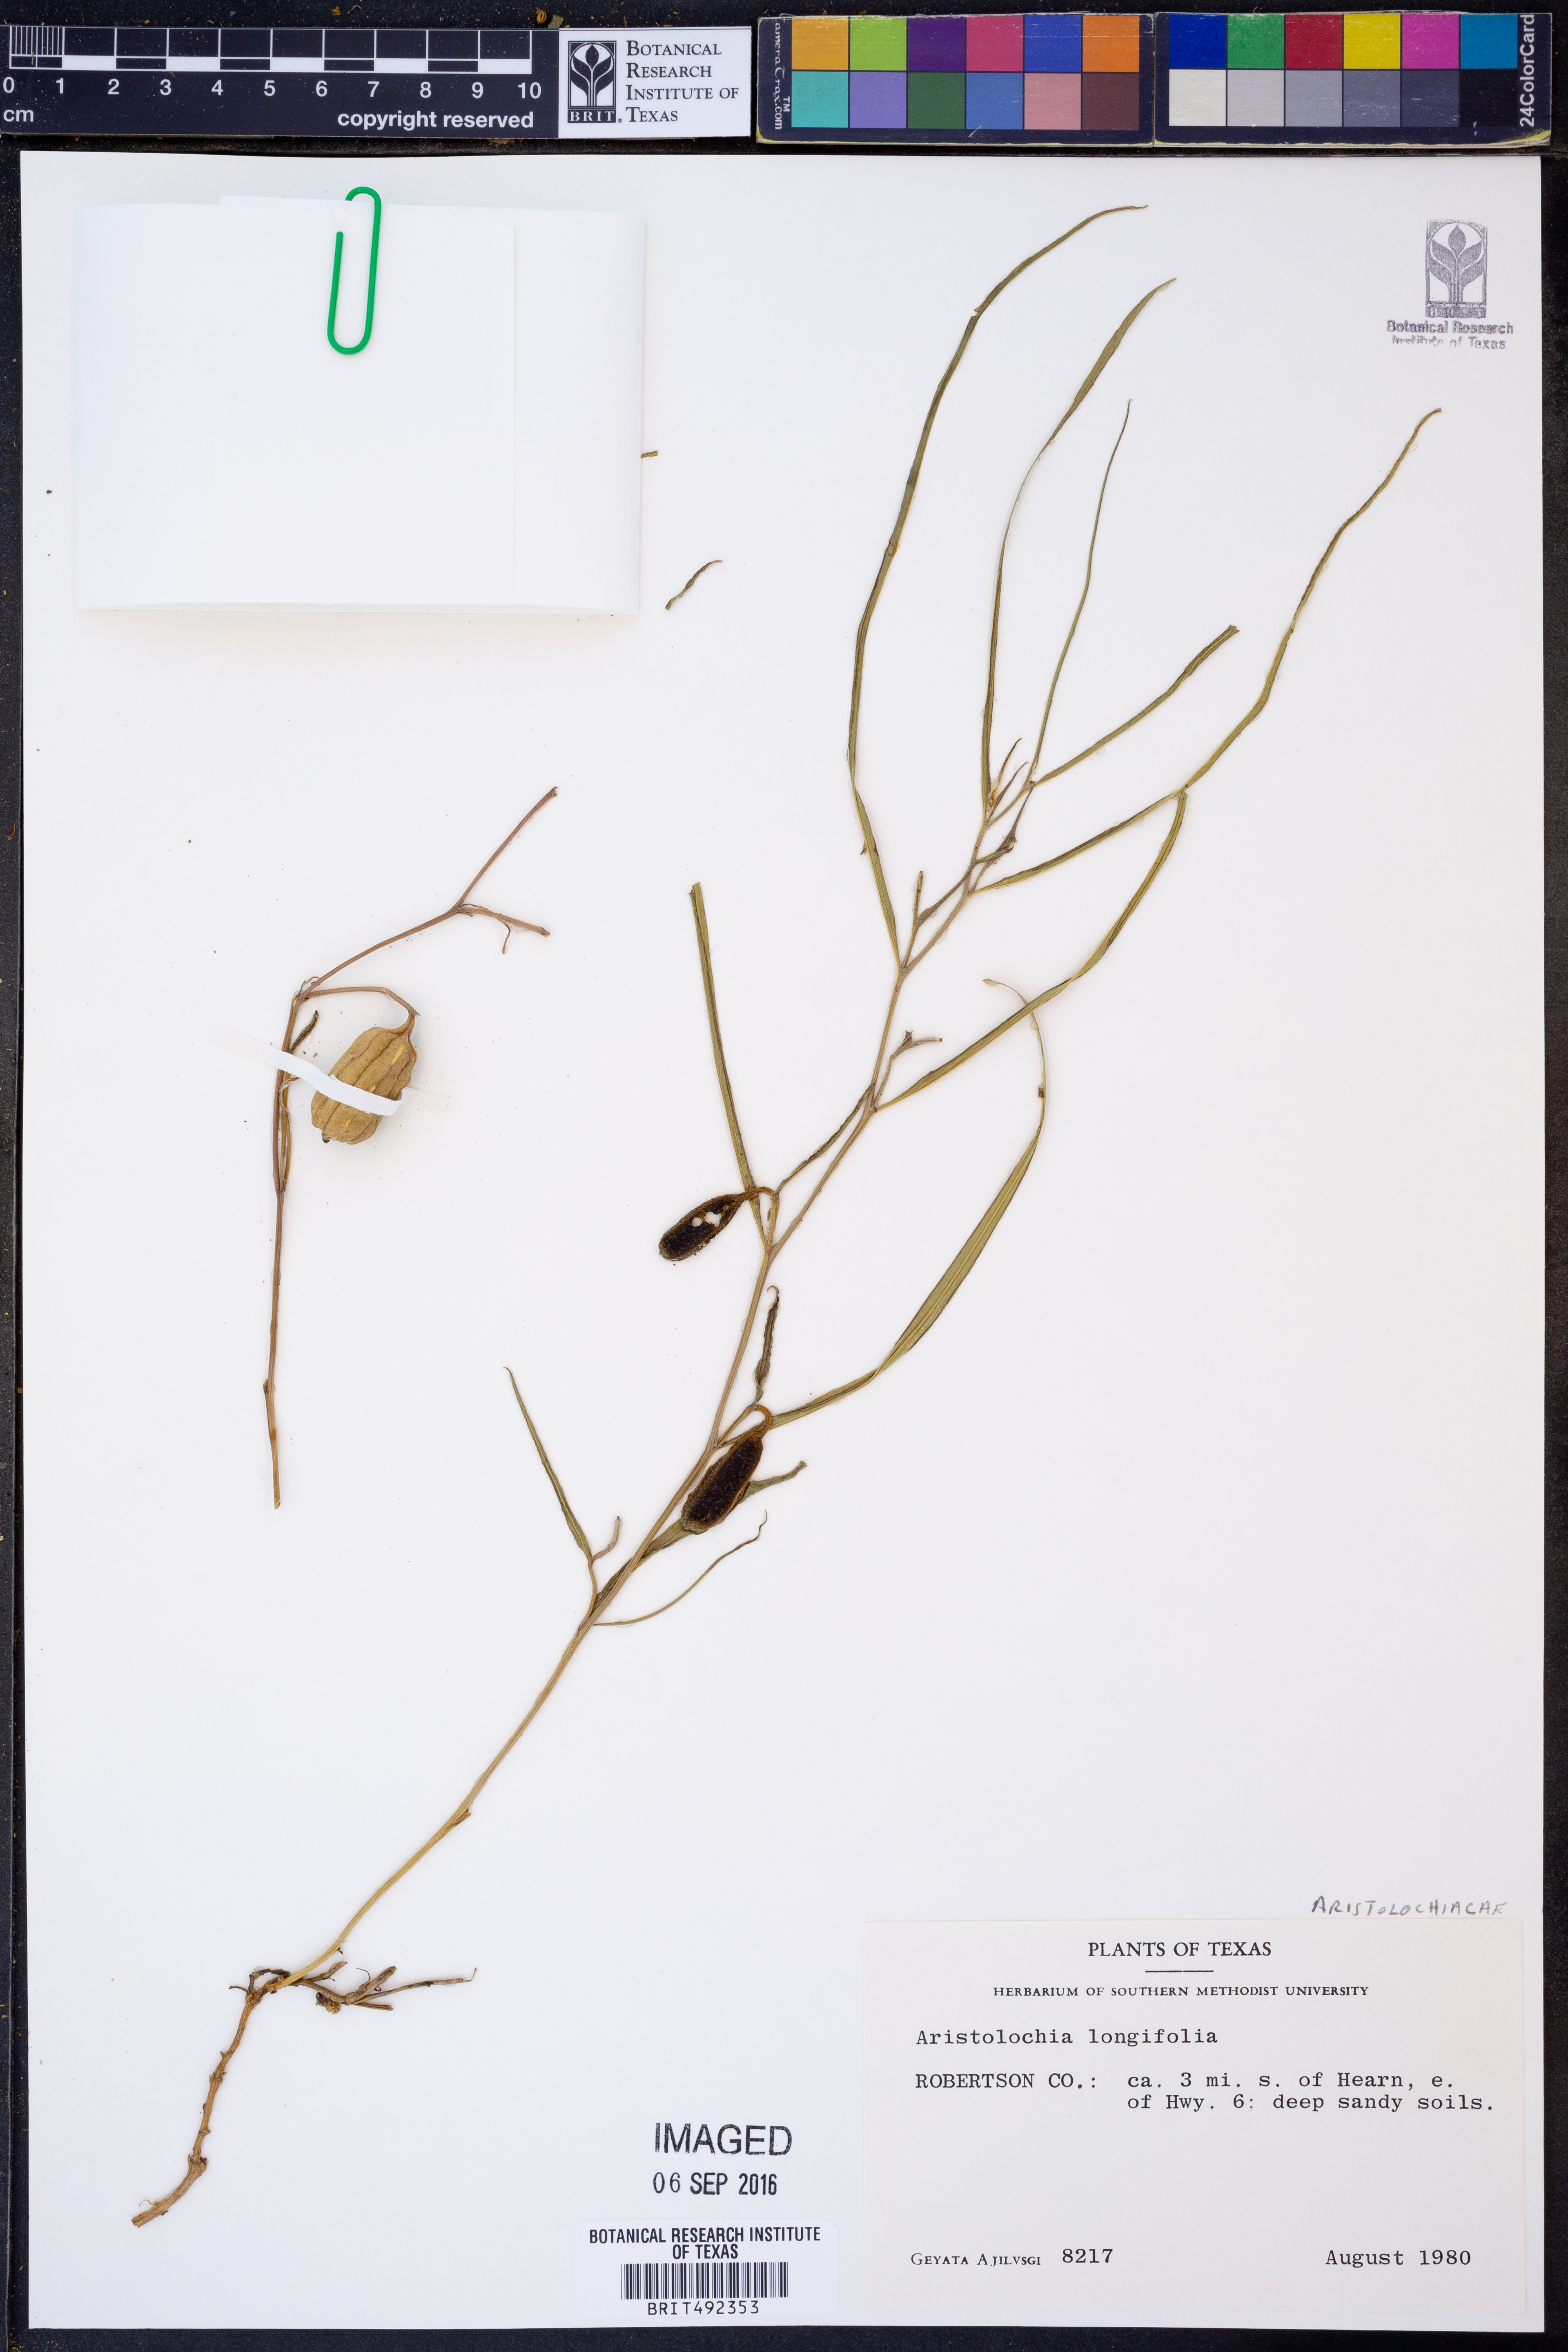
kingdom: Plantae
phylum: Tracheophyta
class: Magnoliopsida
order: Piperales
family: Aristolochiaceae
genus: Aristolochia
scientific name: Aristolochia acuminata
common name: Indian birthwort
